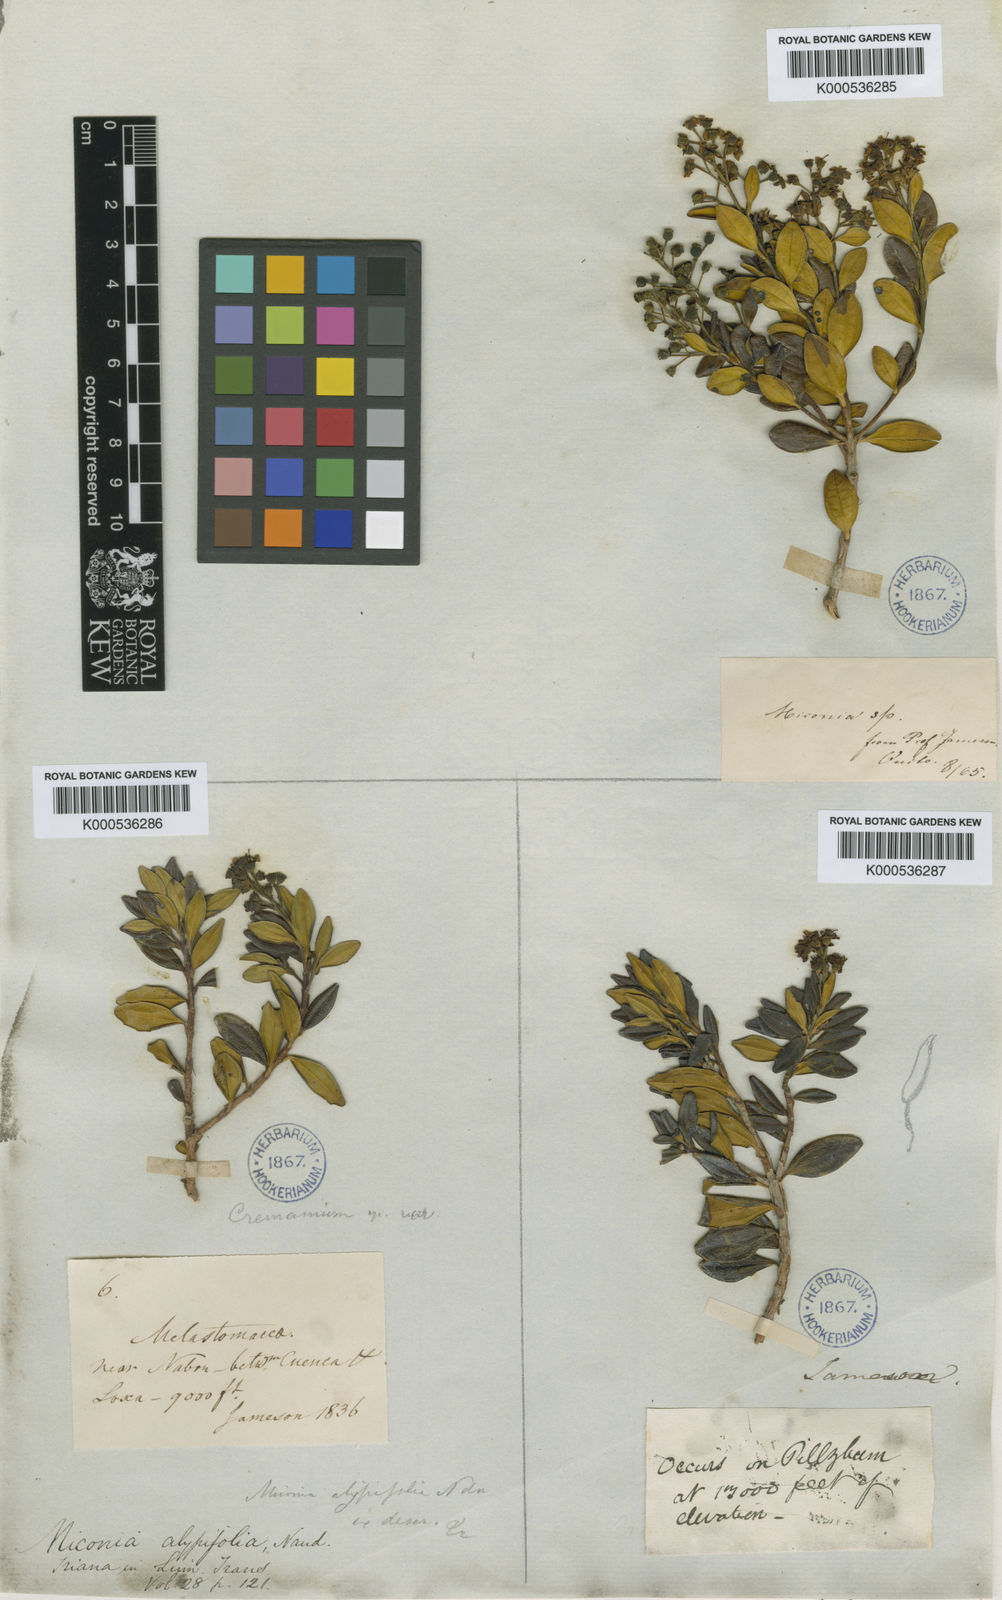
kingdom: Plantae
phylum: Tracheophyta
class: Magnoliopsida
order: Myrtales
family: Melastomataceae
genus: Miconia
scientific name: Miconia alypifolia
